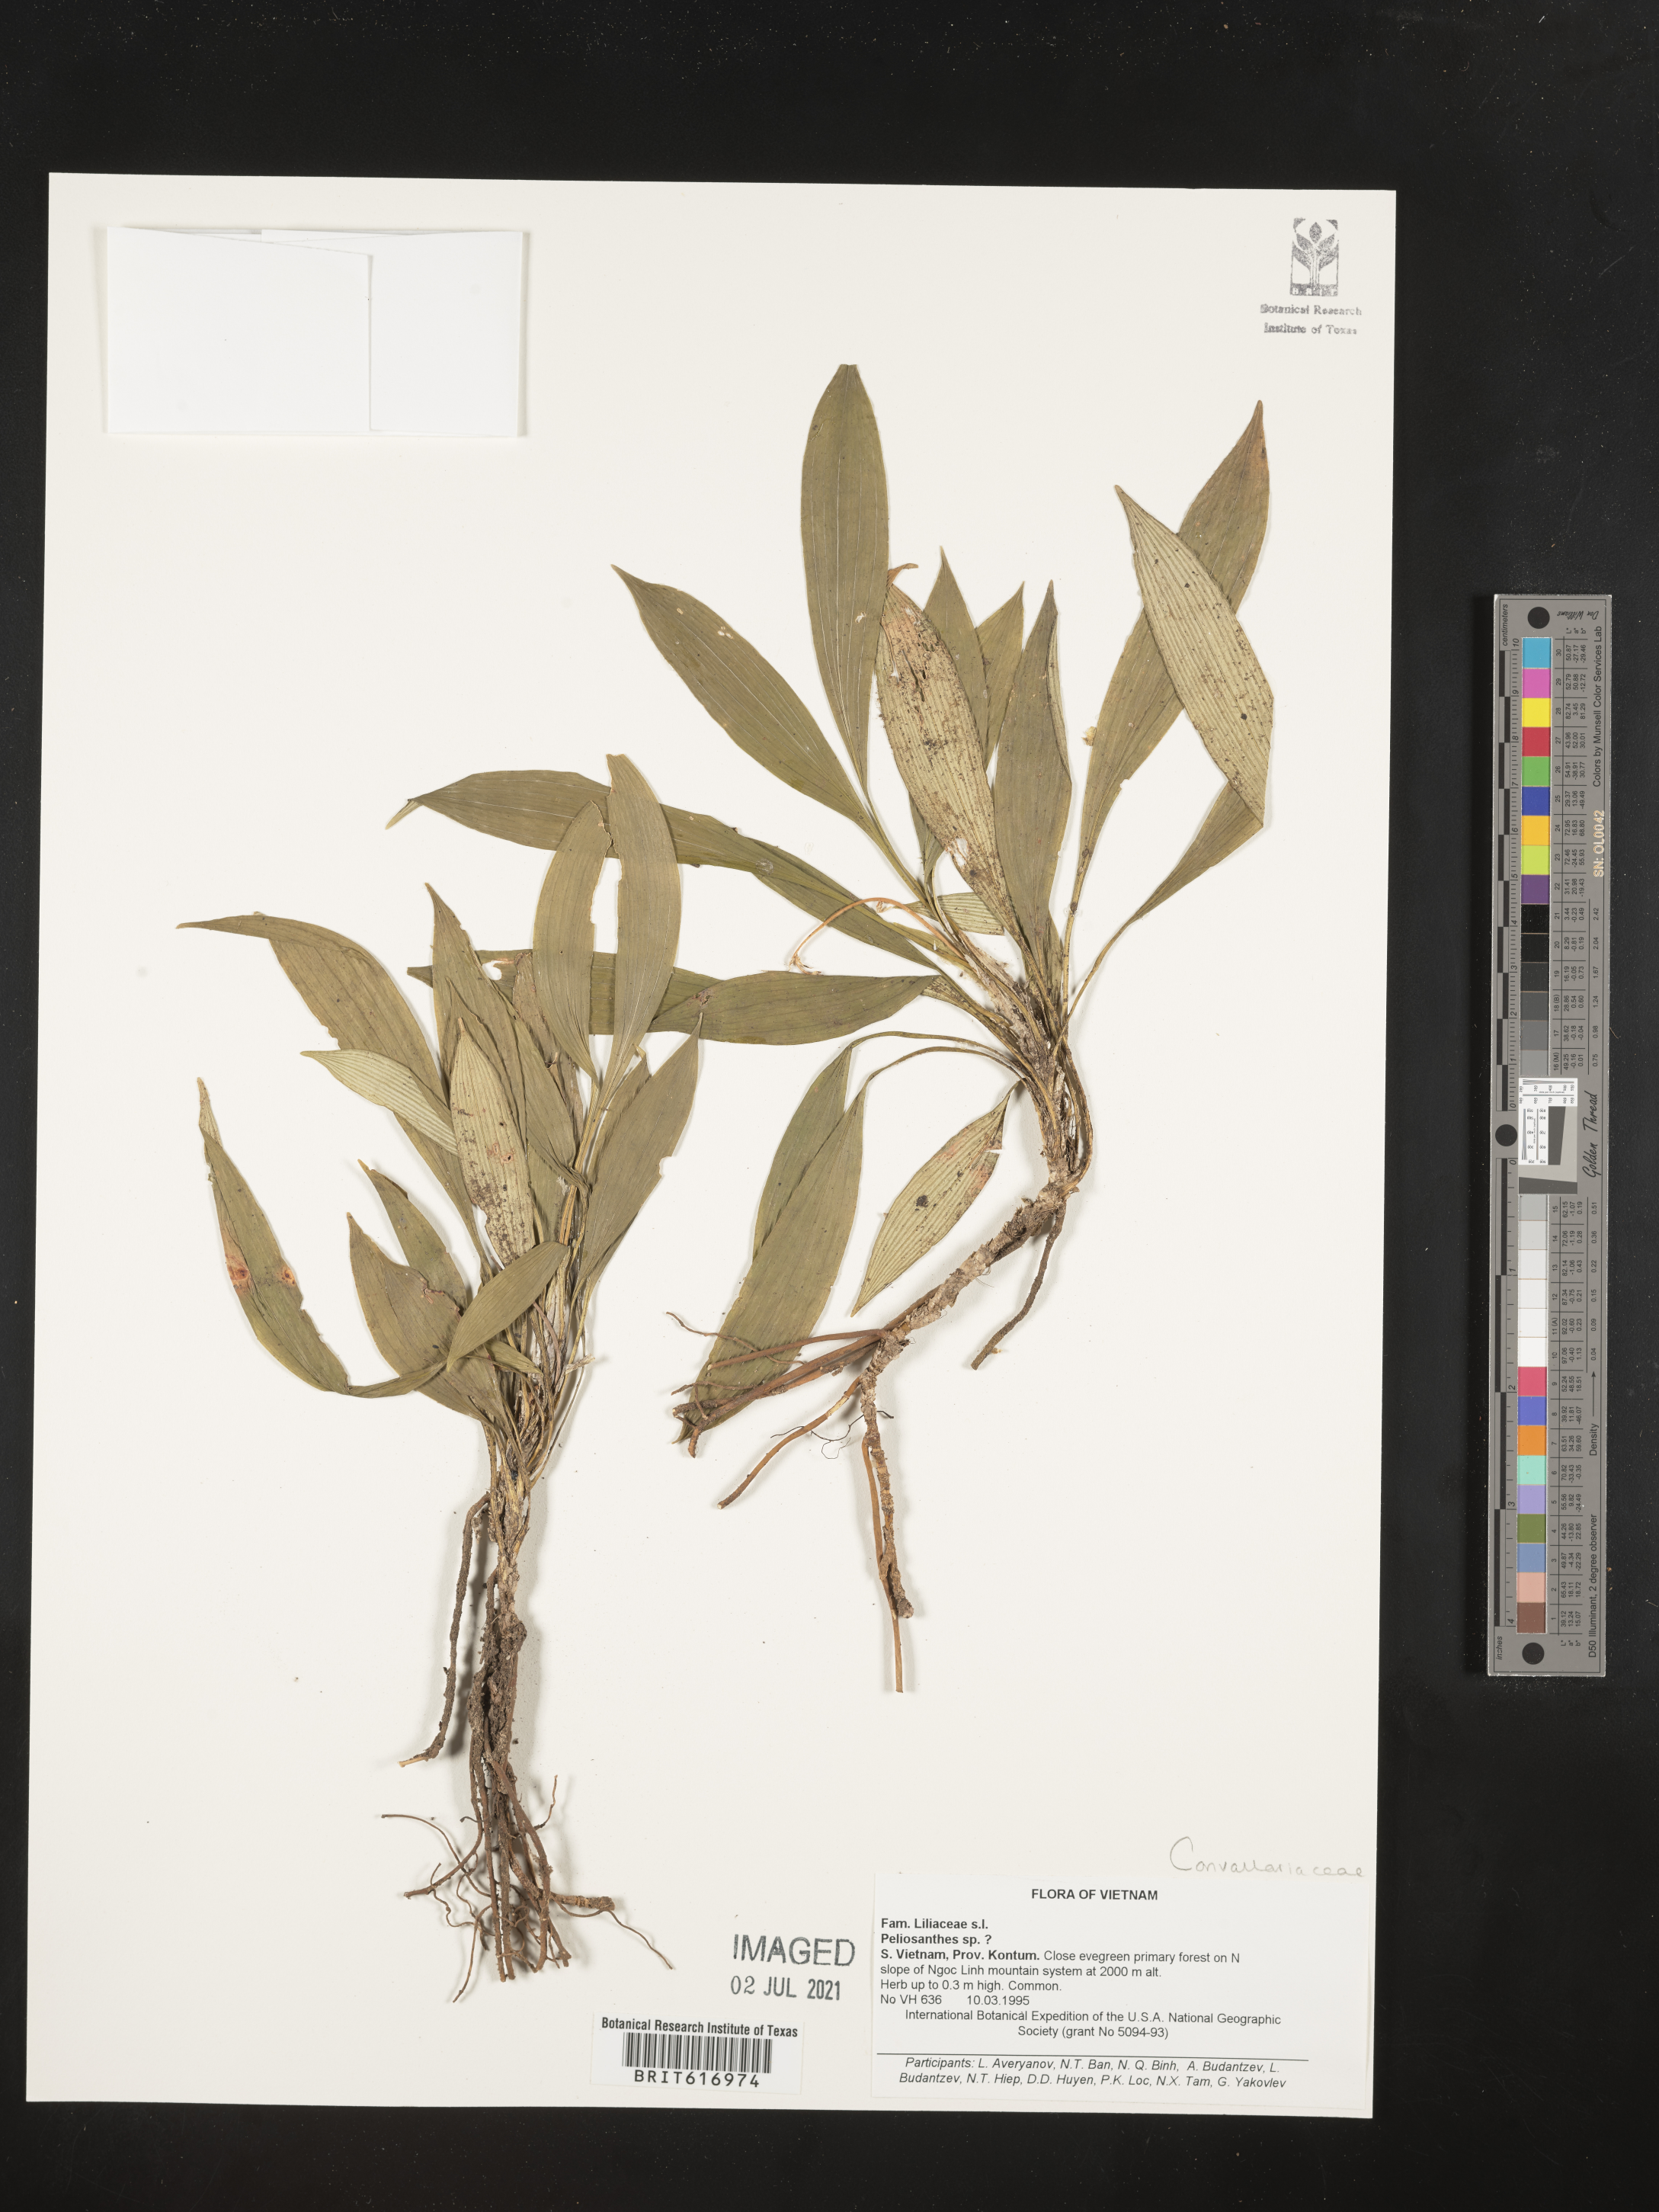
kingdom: Plantae
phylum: Tracheophyta
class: Liliopsida
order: Asparagales
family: Asparagaceae
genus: Peliosanthes
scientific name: Peliosanthes
